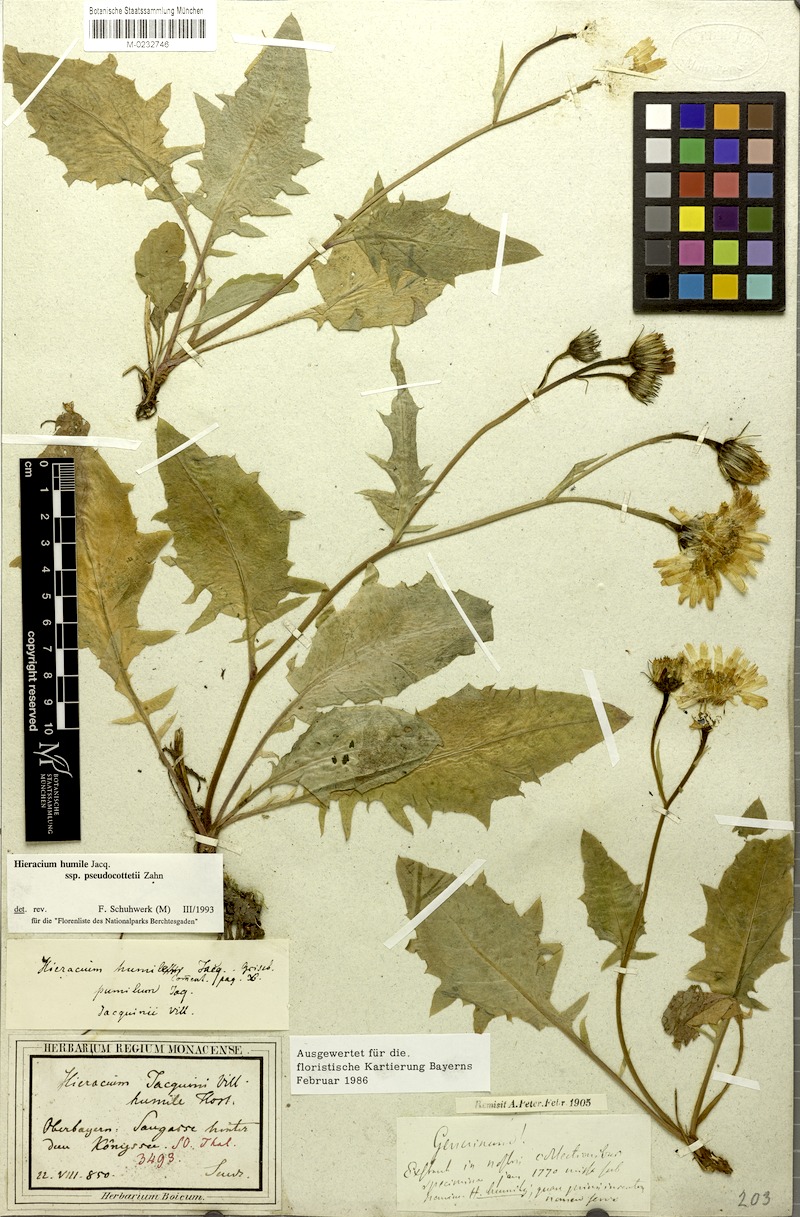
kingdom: Plantae
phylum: Tracheophyta
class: Magnoliopsida
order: Asterales
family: Asteraceae
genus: Hieracium
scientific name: Hieracium humile
